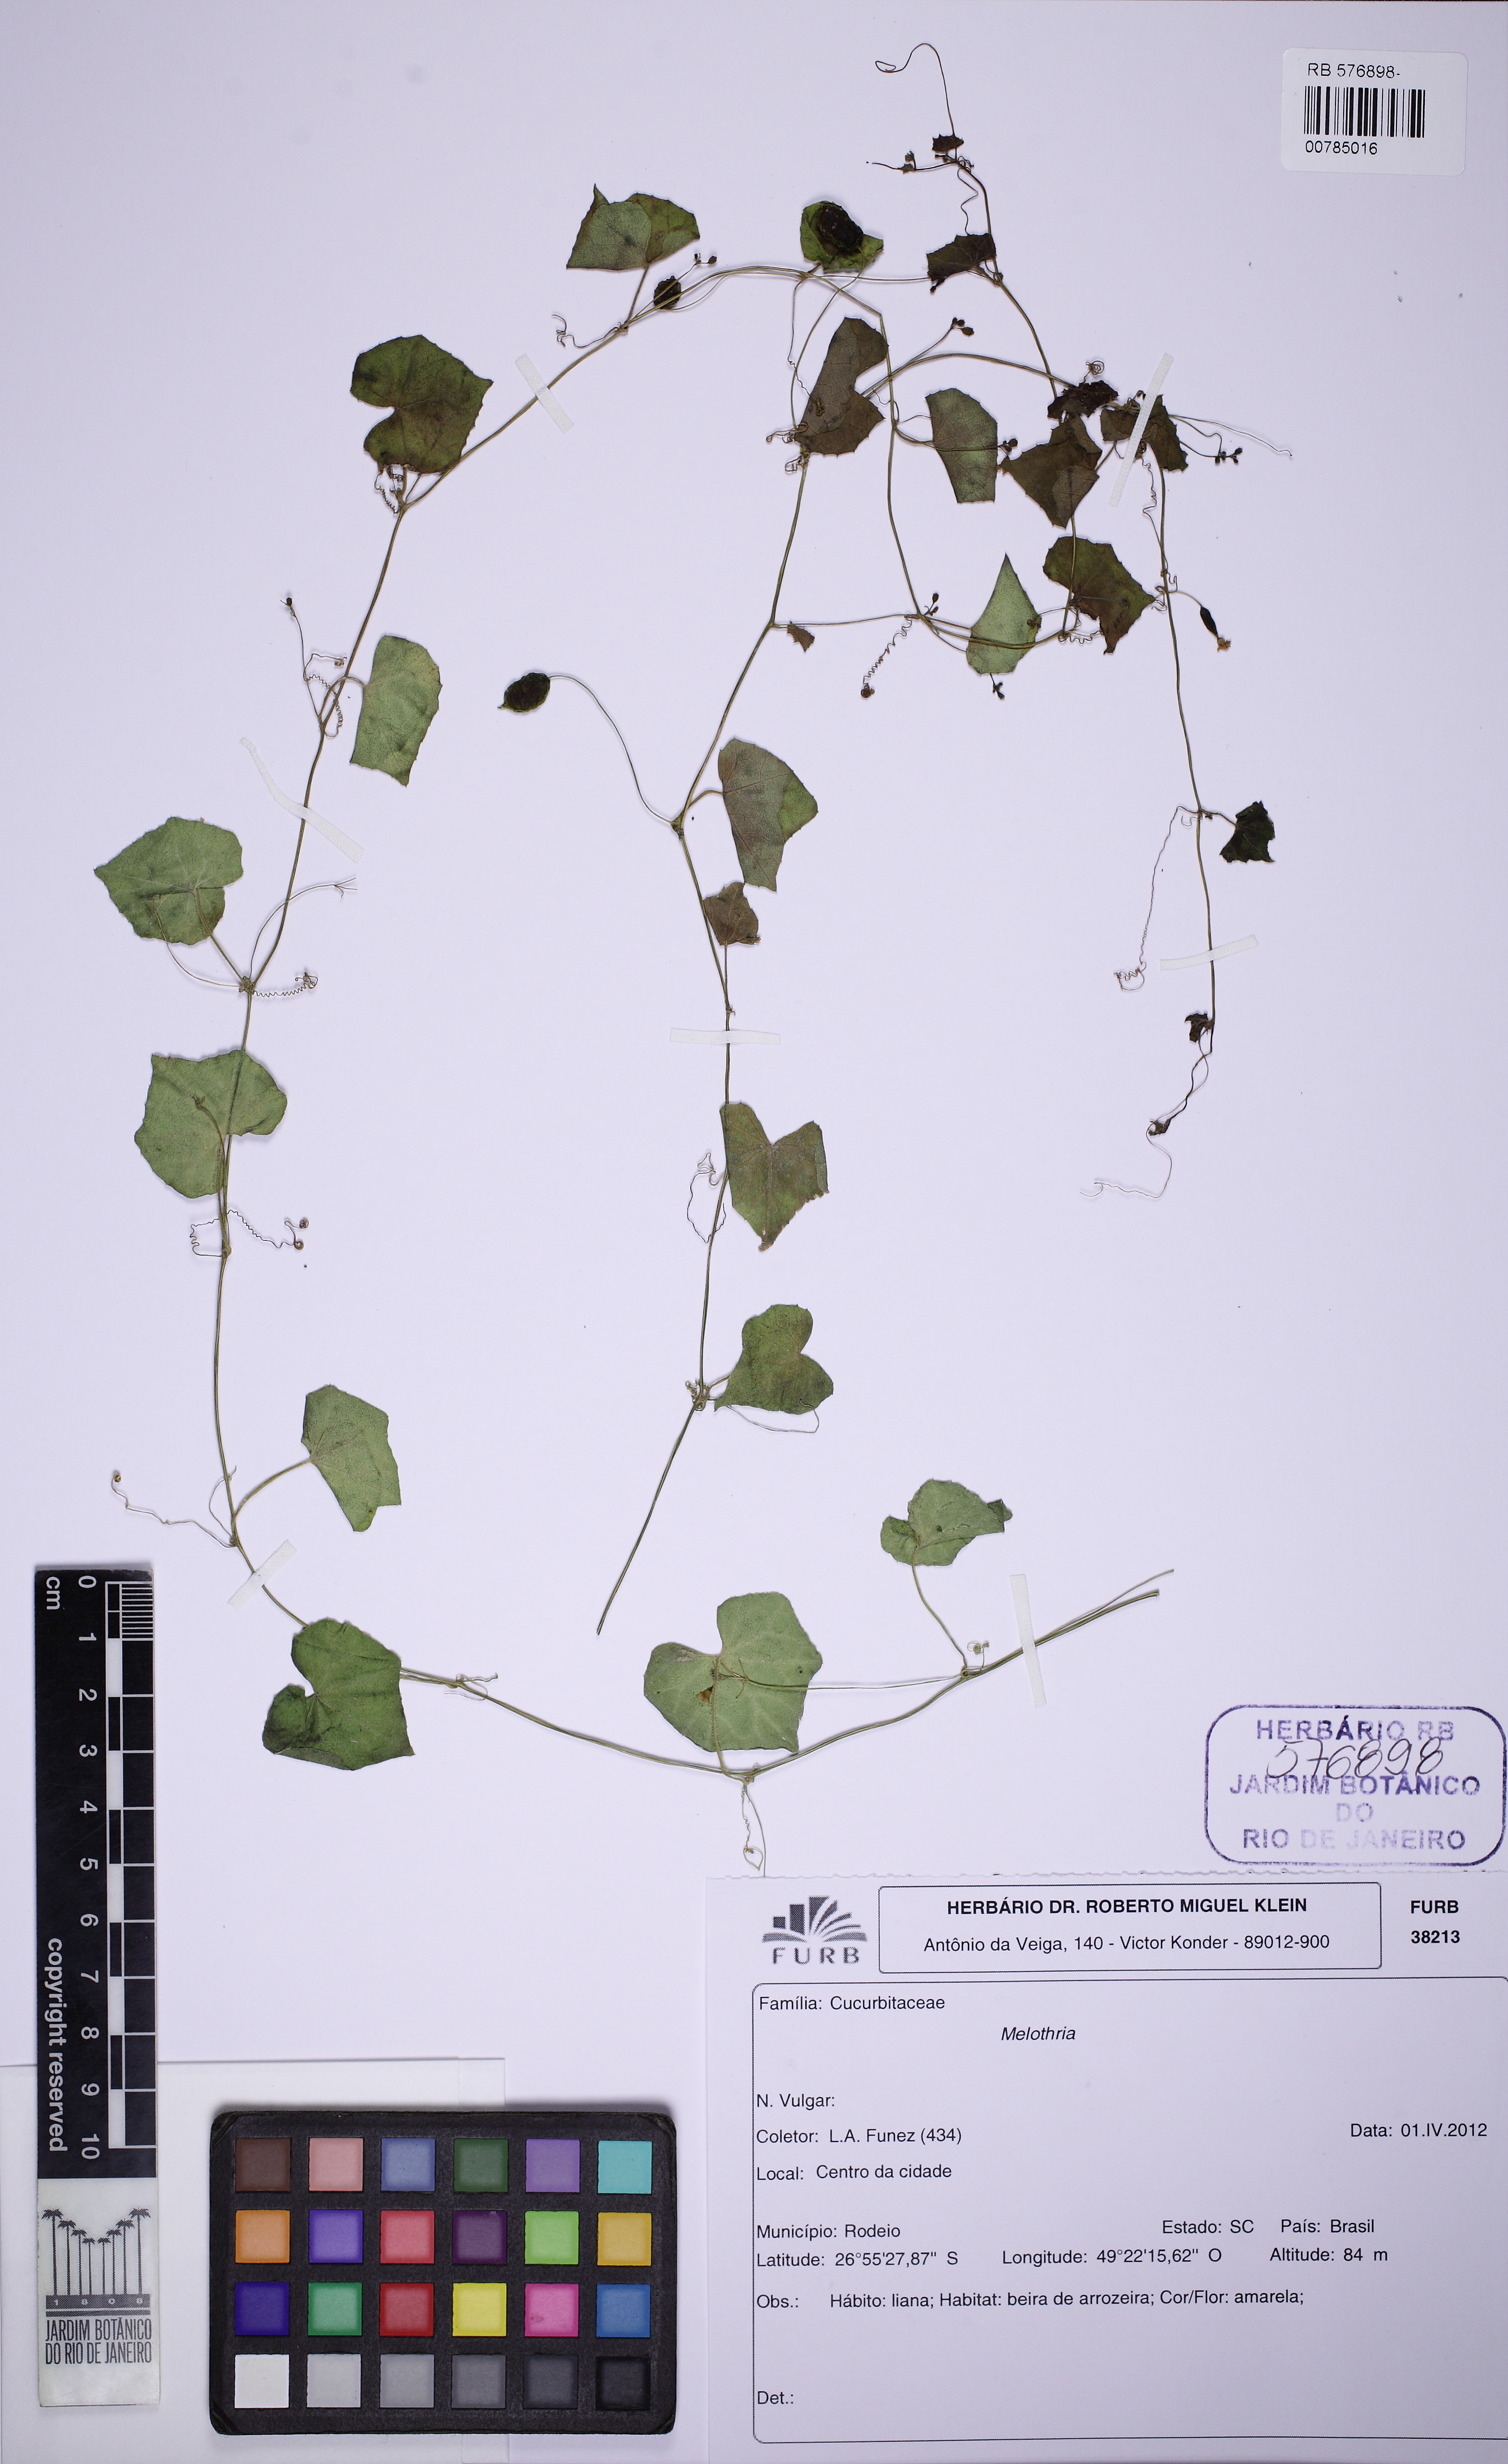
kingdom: Plantae
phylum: Tracheophyta
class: Magnoliopsida
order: Cucurbitales
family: Cucurbitaceae
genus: Melothria
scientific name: Melothria
